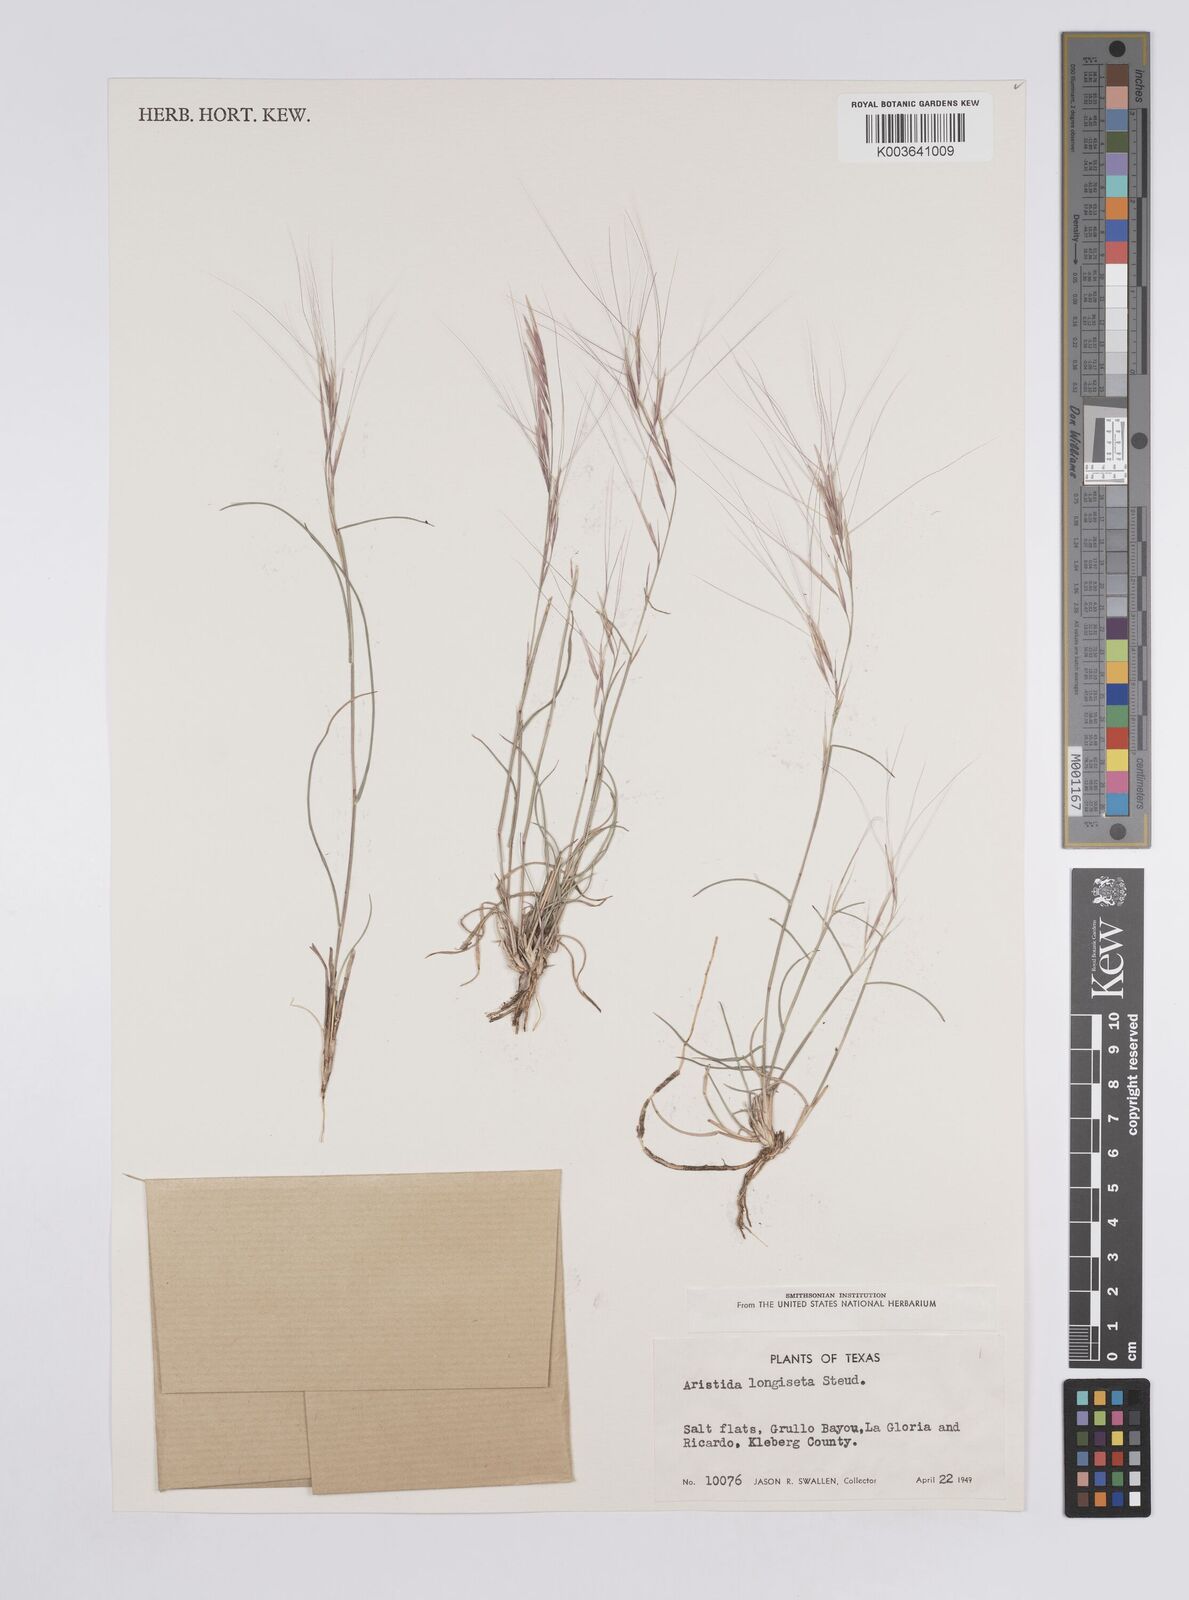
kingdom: Plantae
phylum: Tracheophyta
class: Liliopsida
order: Poales
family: Poaceae
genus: Aristida
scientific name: Aristida purpurea
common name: Purple threeawn
